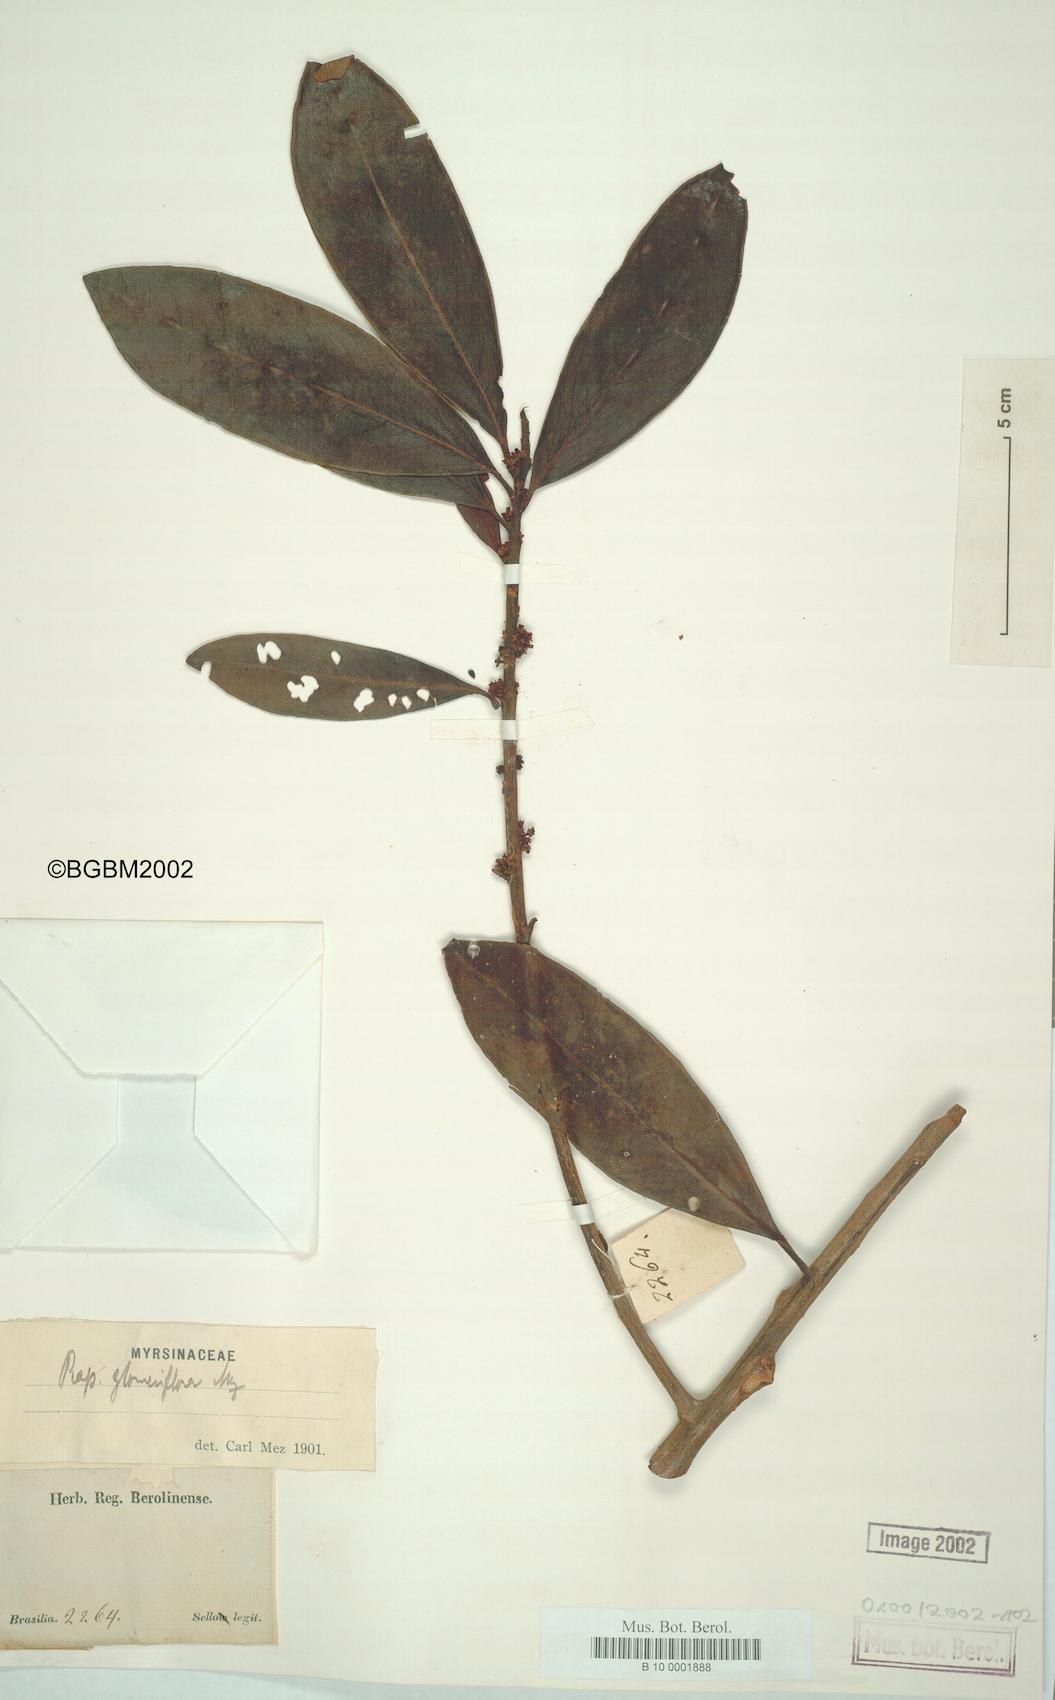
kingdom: Plantae
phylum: Tracheophyta
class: Magnoliopsida
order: Ericales
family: Primulaceae
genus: Myrsine
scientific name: Myrsine umbellata
